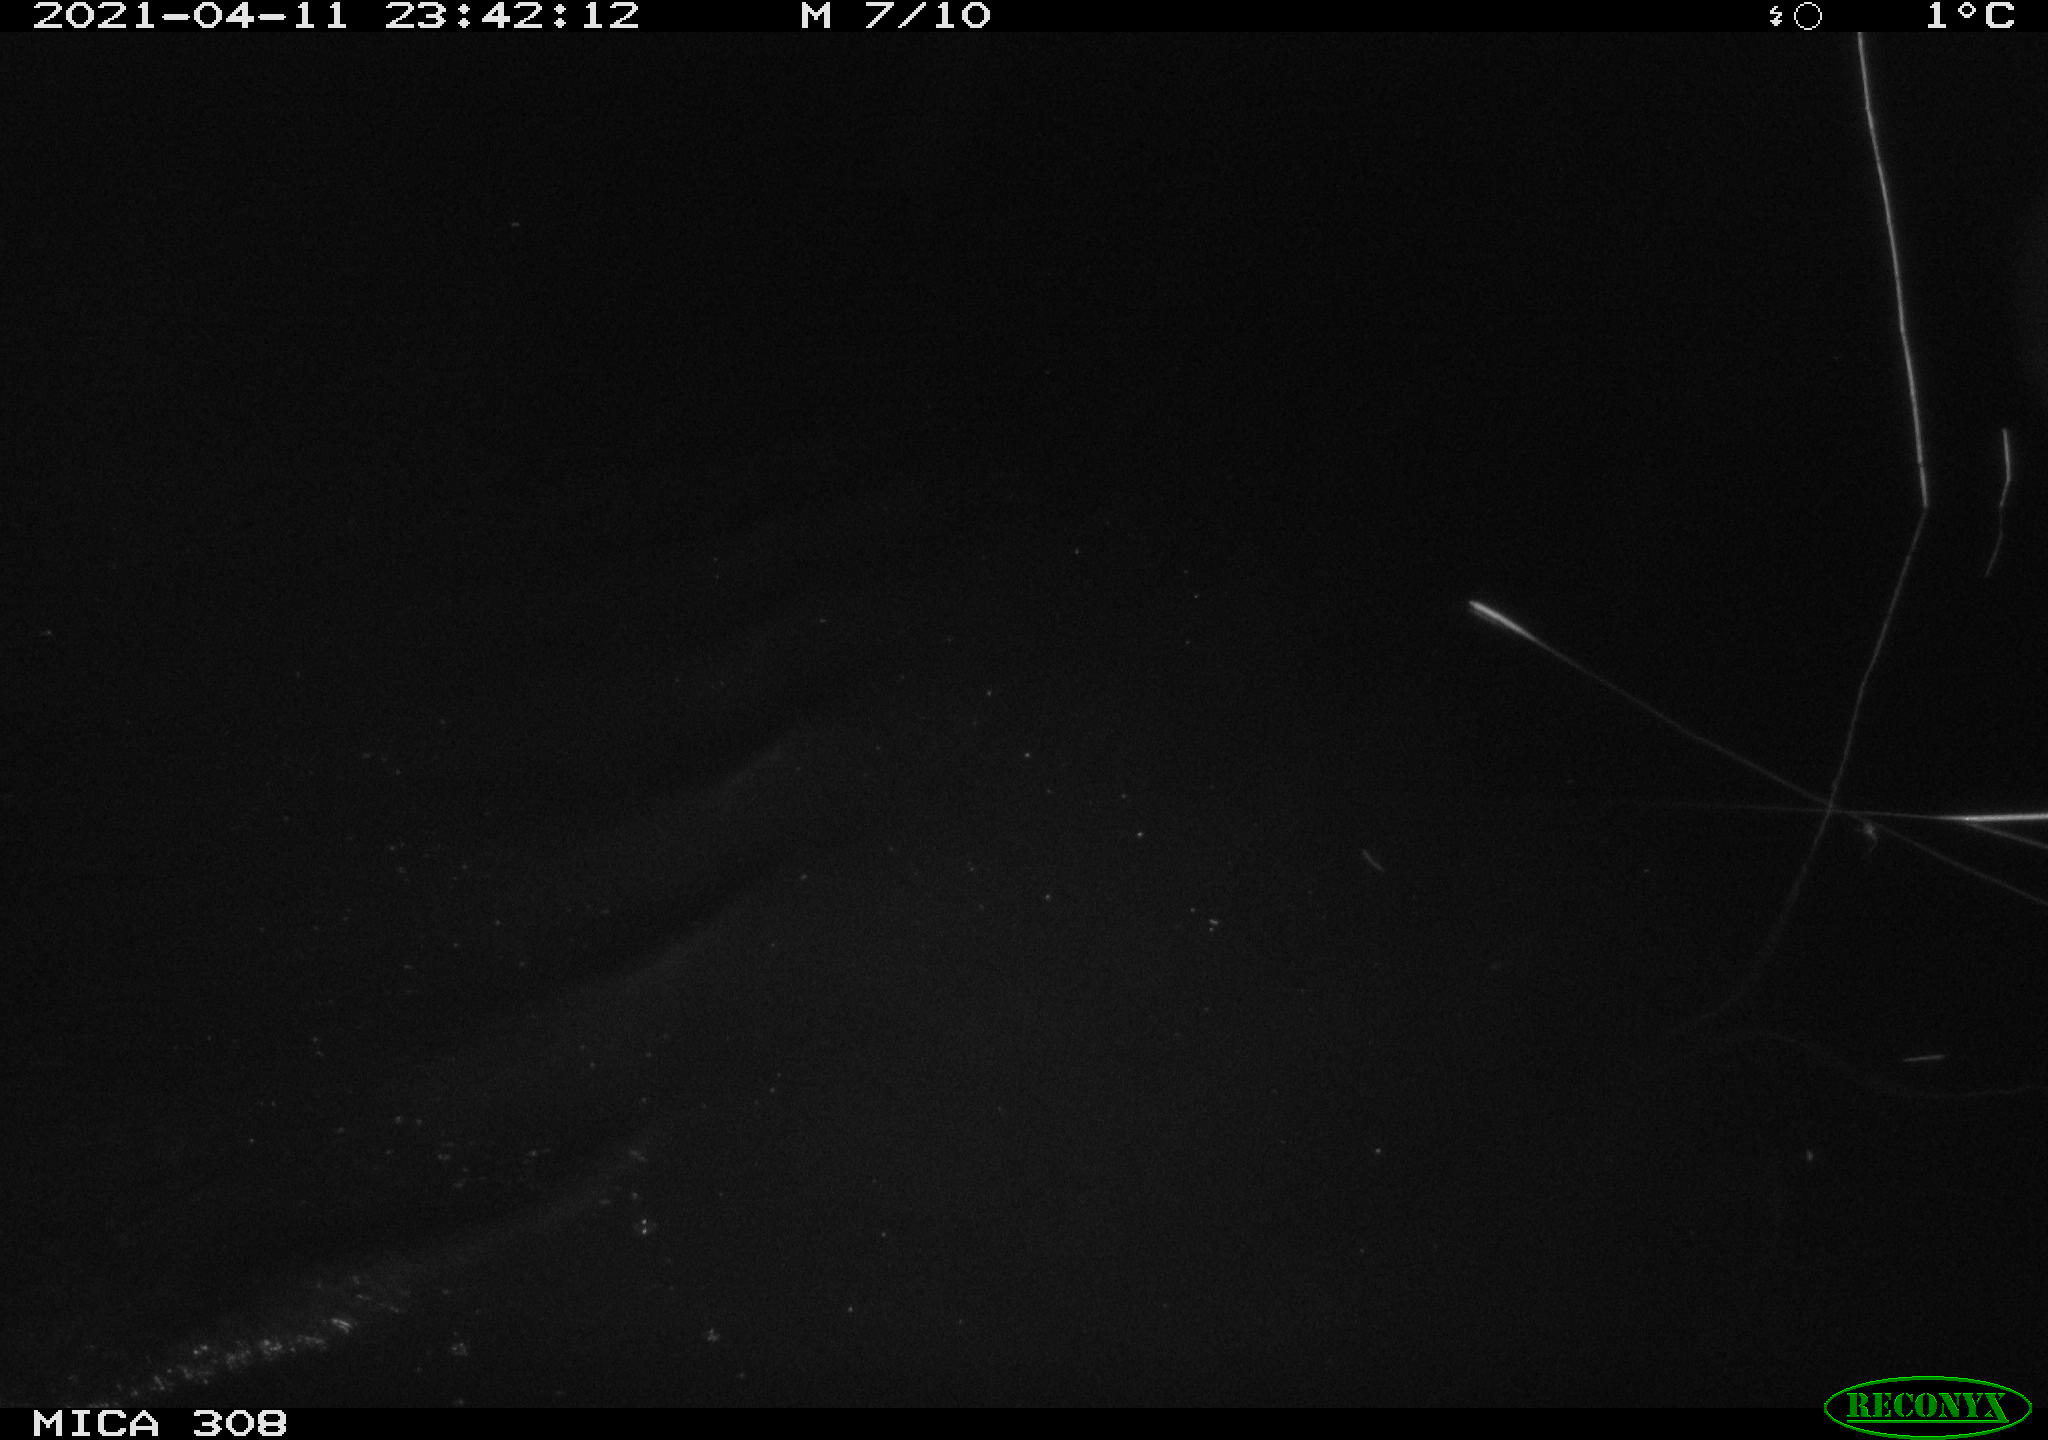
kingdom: Animalia
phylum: Chordata
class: Aves
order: Anseriformes
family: Anatidae
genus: Anas
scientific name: Anas platyrhynchos
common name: Mallard
